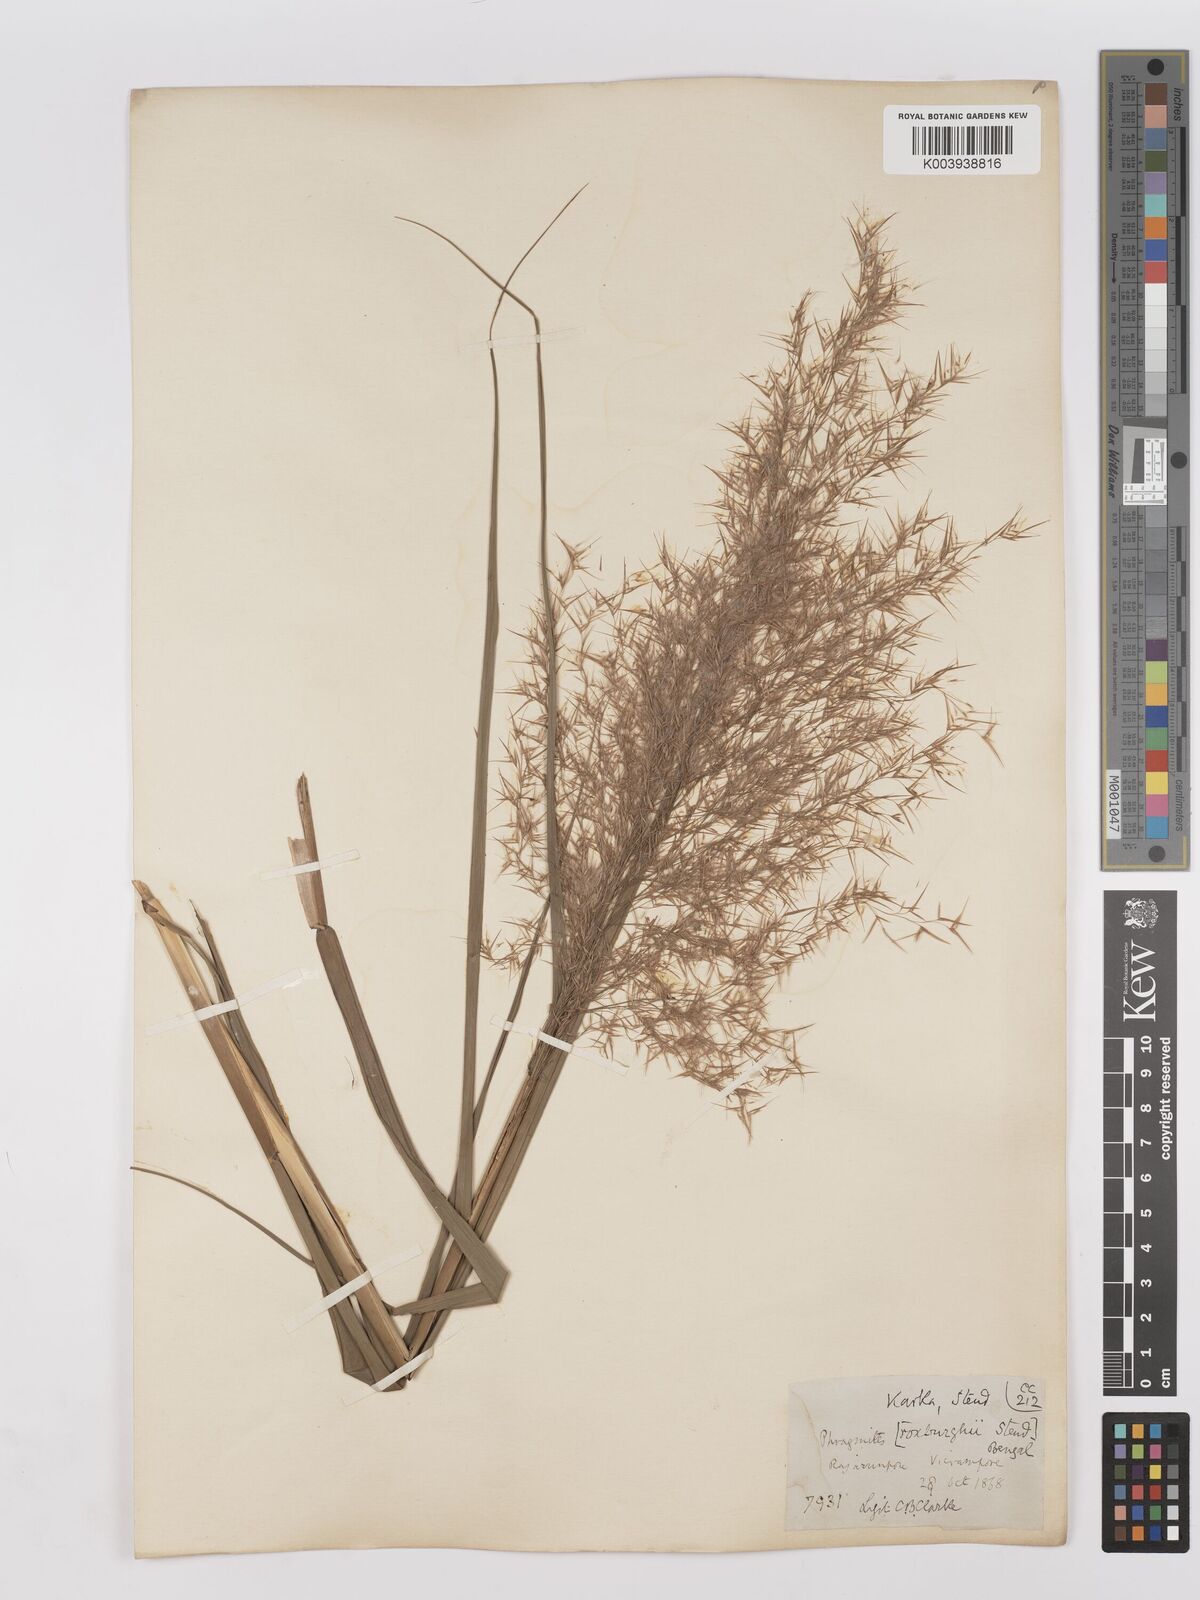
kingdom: Plantae
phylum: Tracheophyta
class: Liliopsida
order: Poales
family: Poaceae
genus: Phragmites
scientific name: Phragmites karka
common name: Tropical reed
